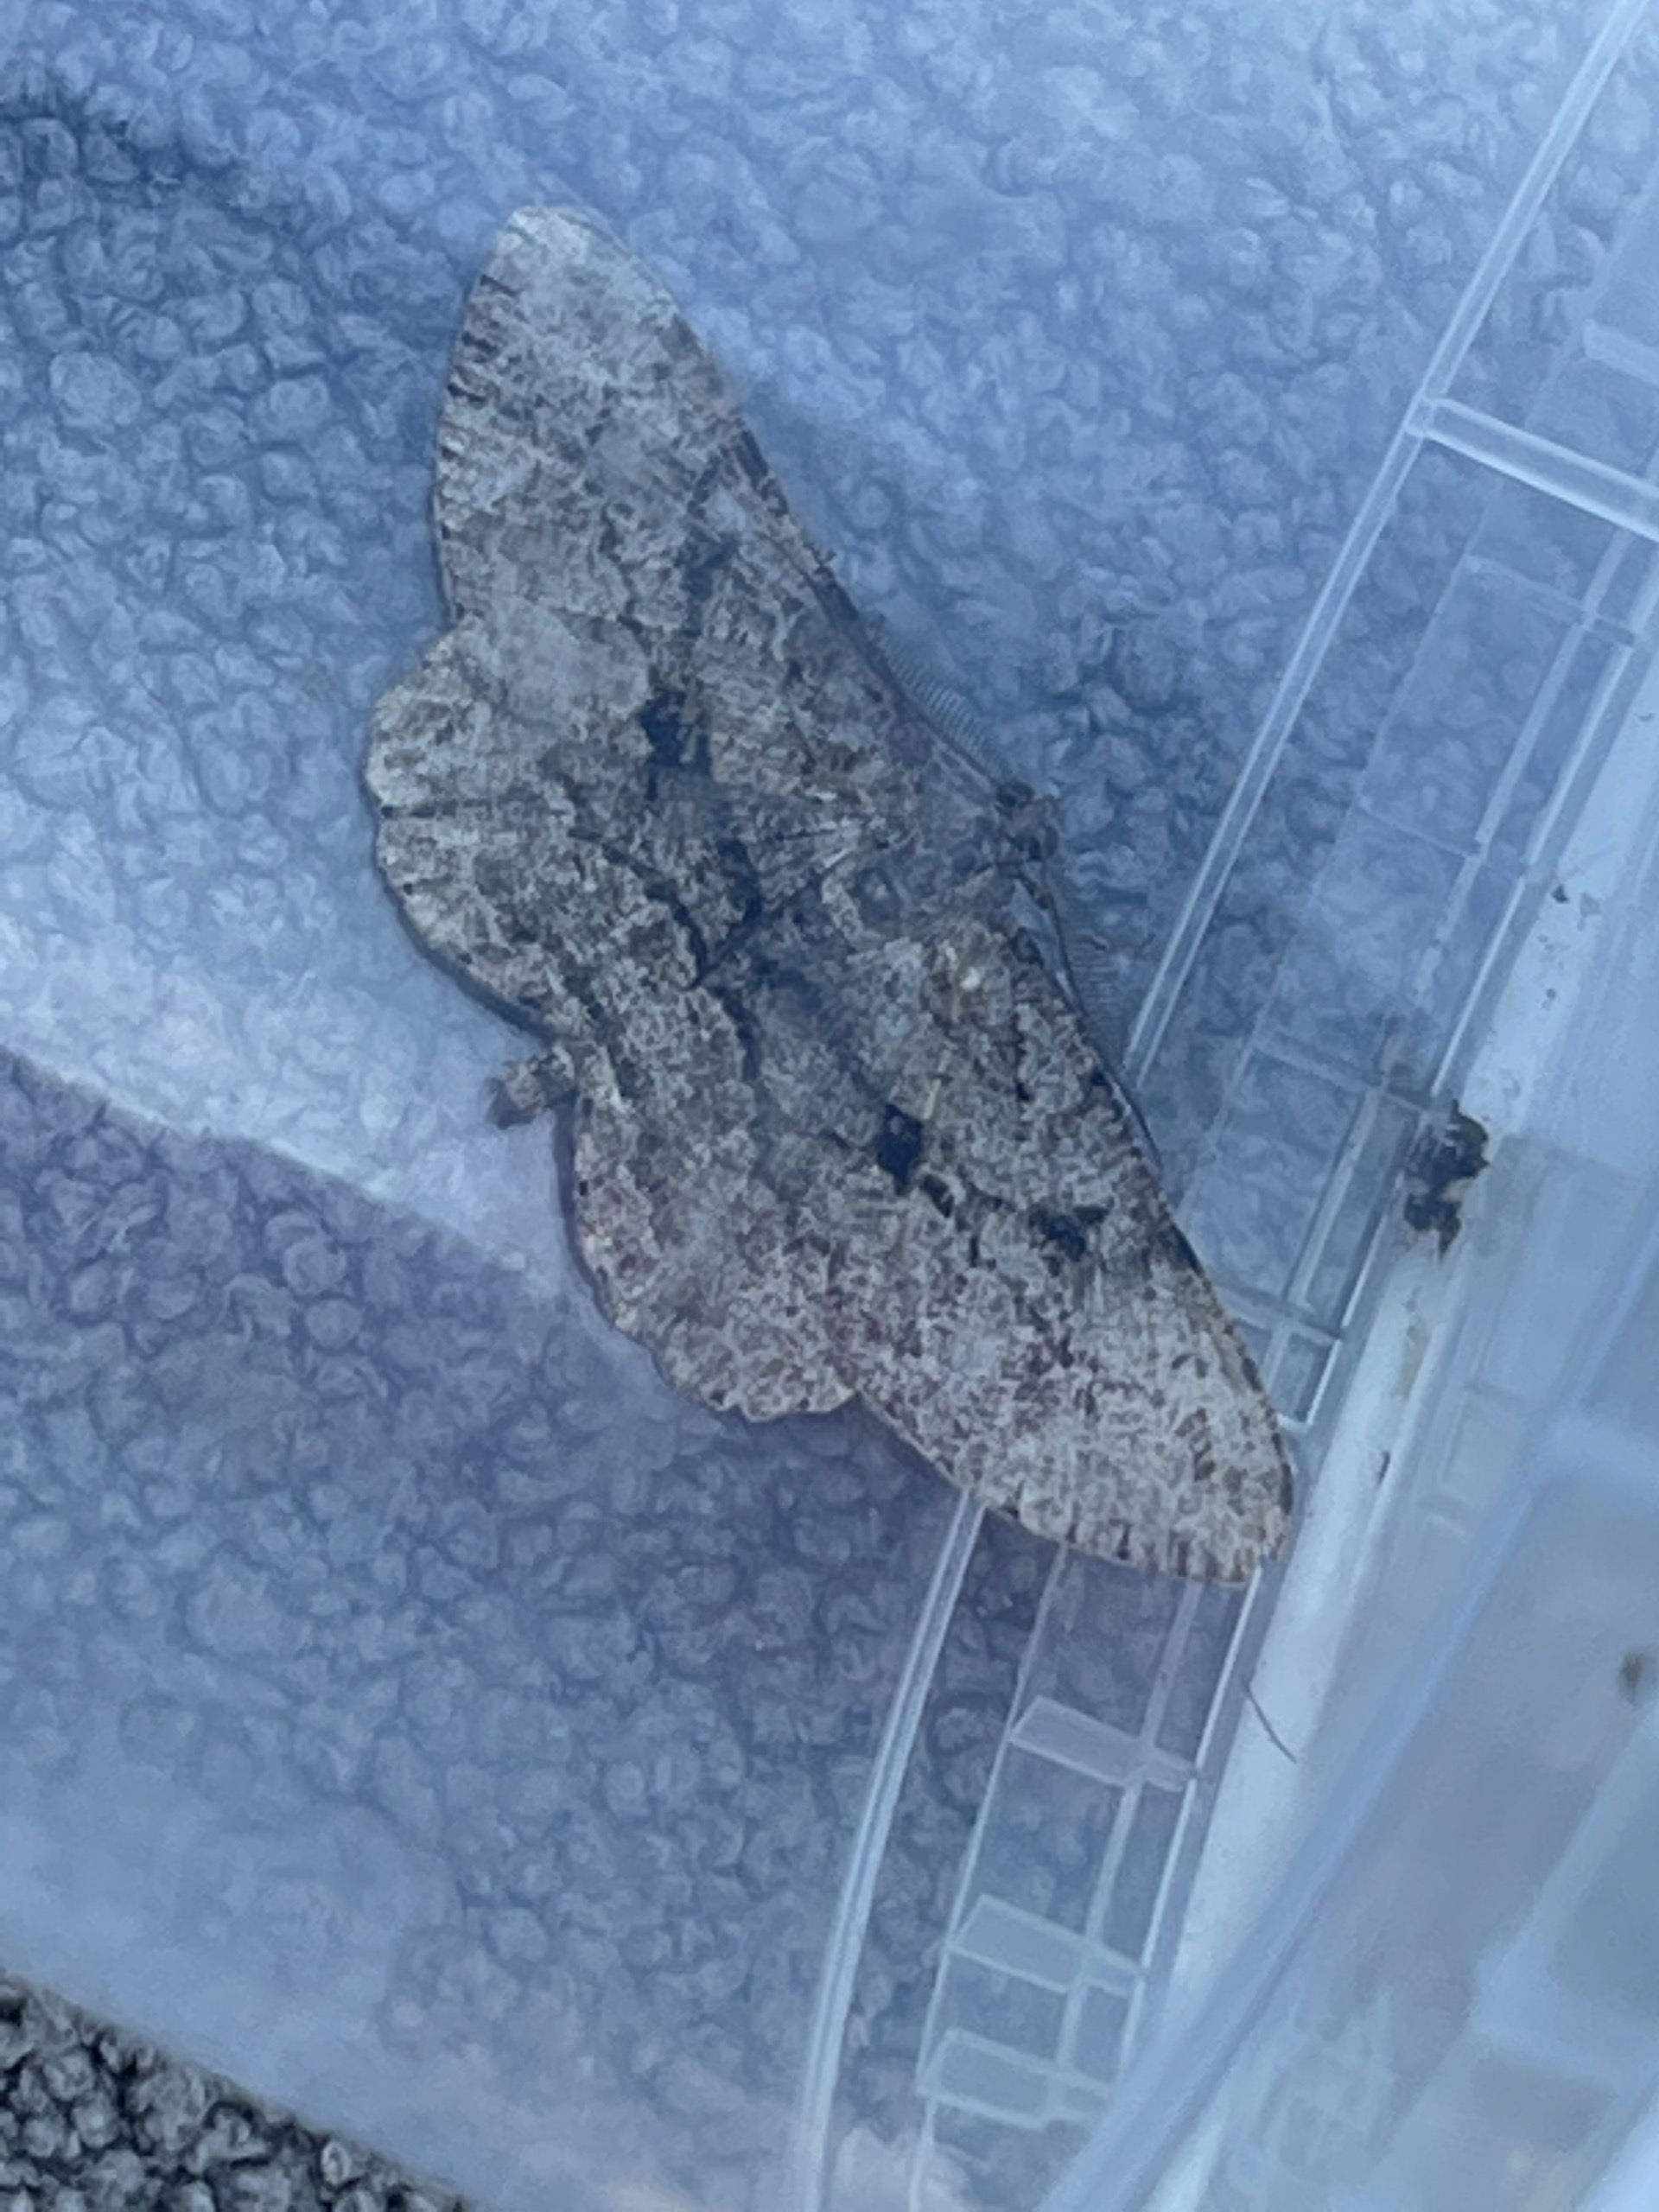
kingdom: Animalia
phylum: Arthropoda
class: Insecta
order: Lepidoptera
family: Geometridae
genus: Peribatodes
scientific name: Peribatodes rhomboidaria
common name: Frugttræ-barkmåler
